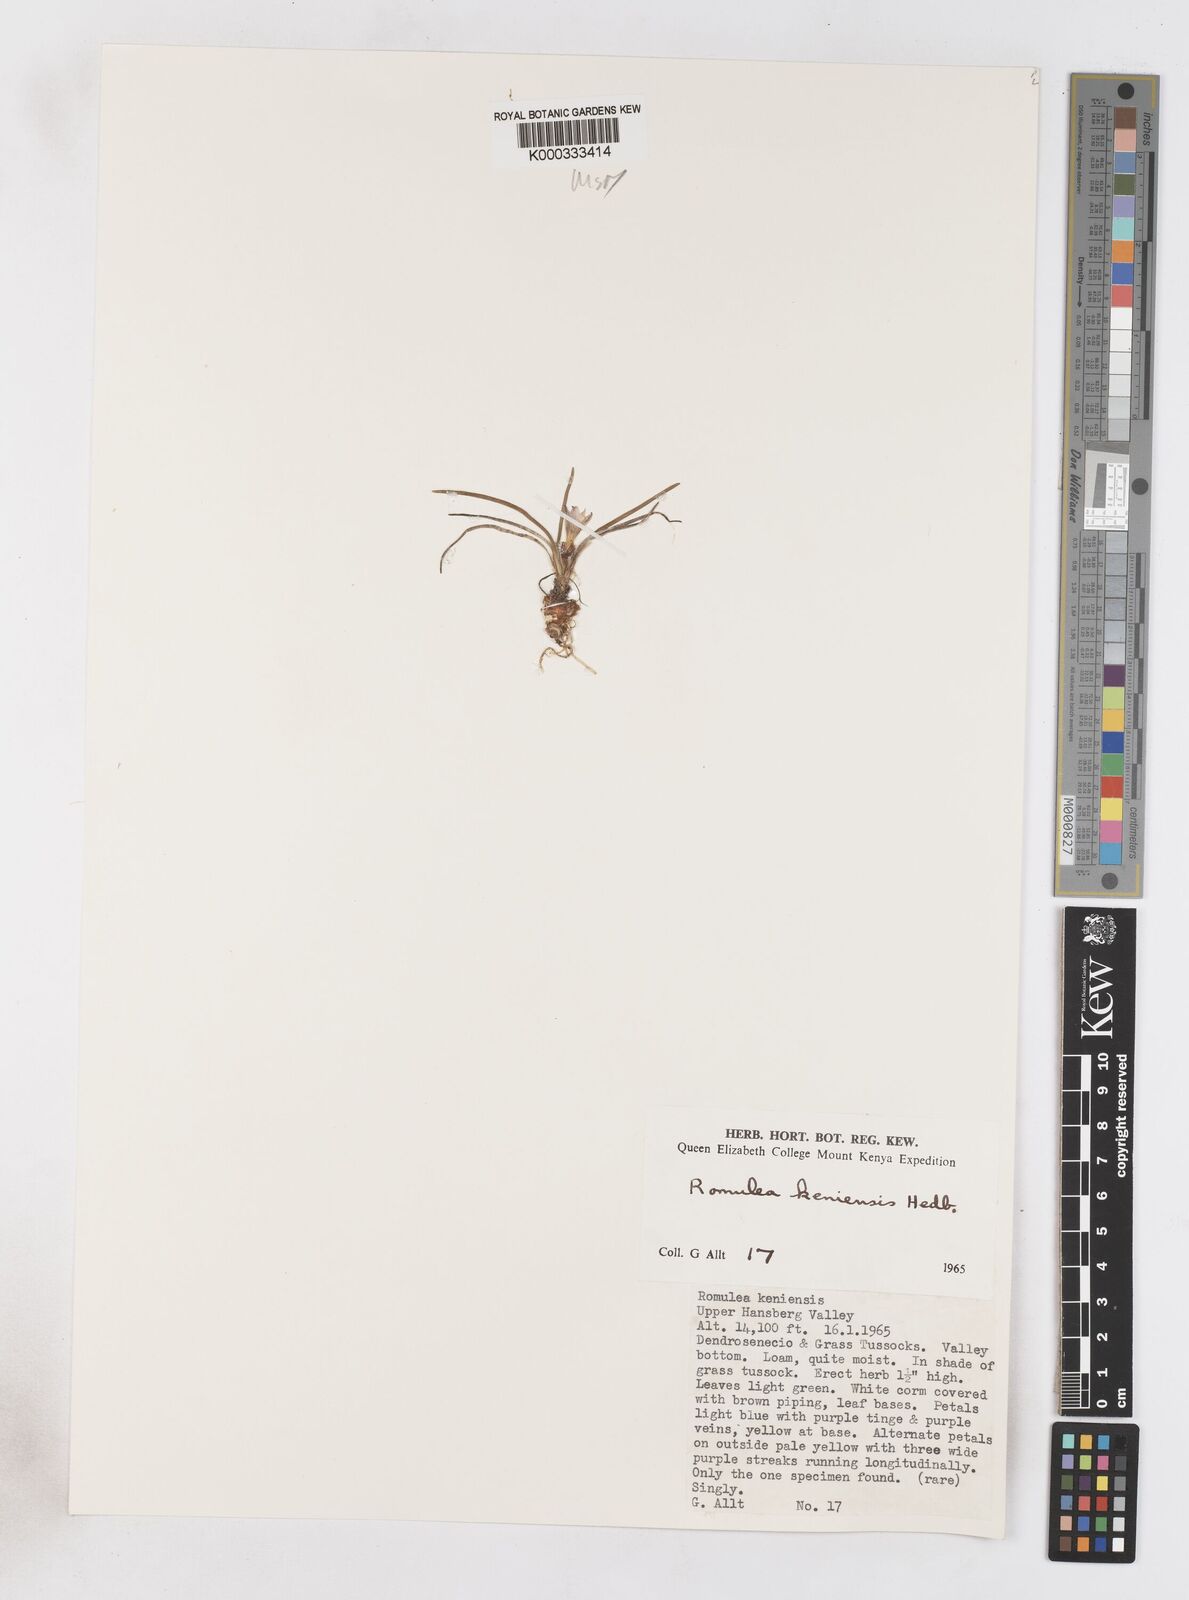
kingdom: Plantae
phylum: Tracheophyta
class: Liliopsida
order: Asparagales
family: Iridaceae
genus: Romulea
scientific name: Romulea congoensis
